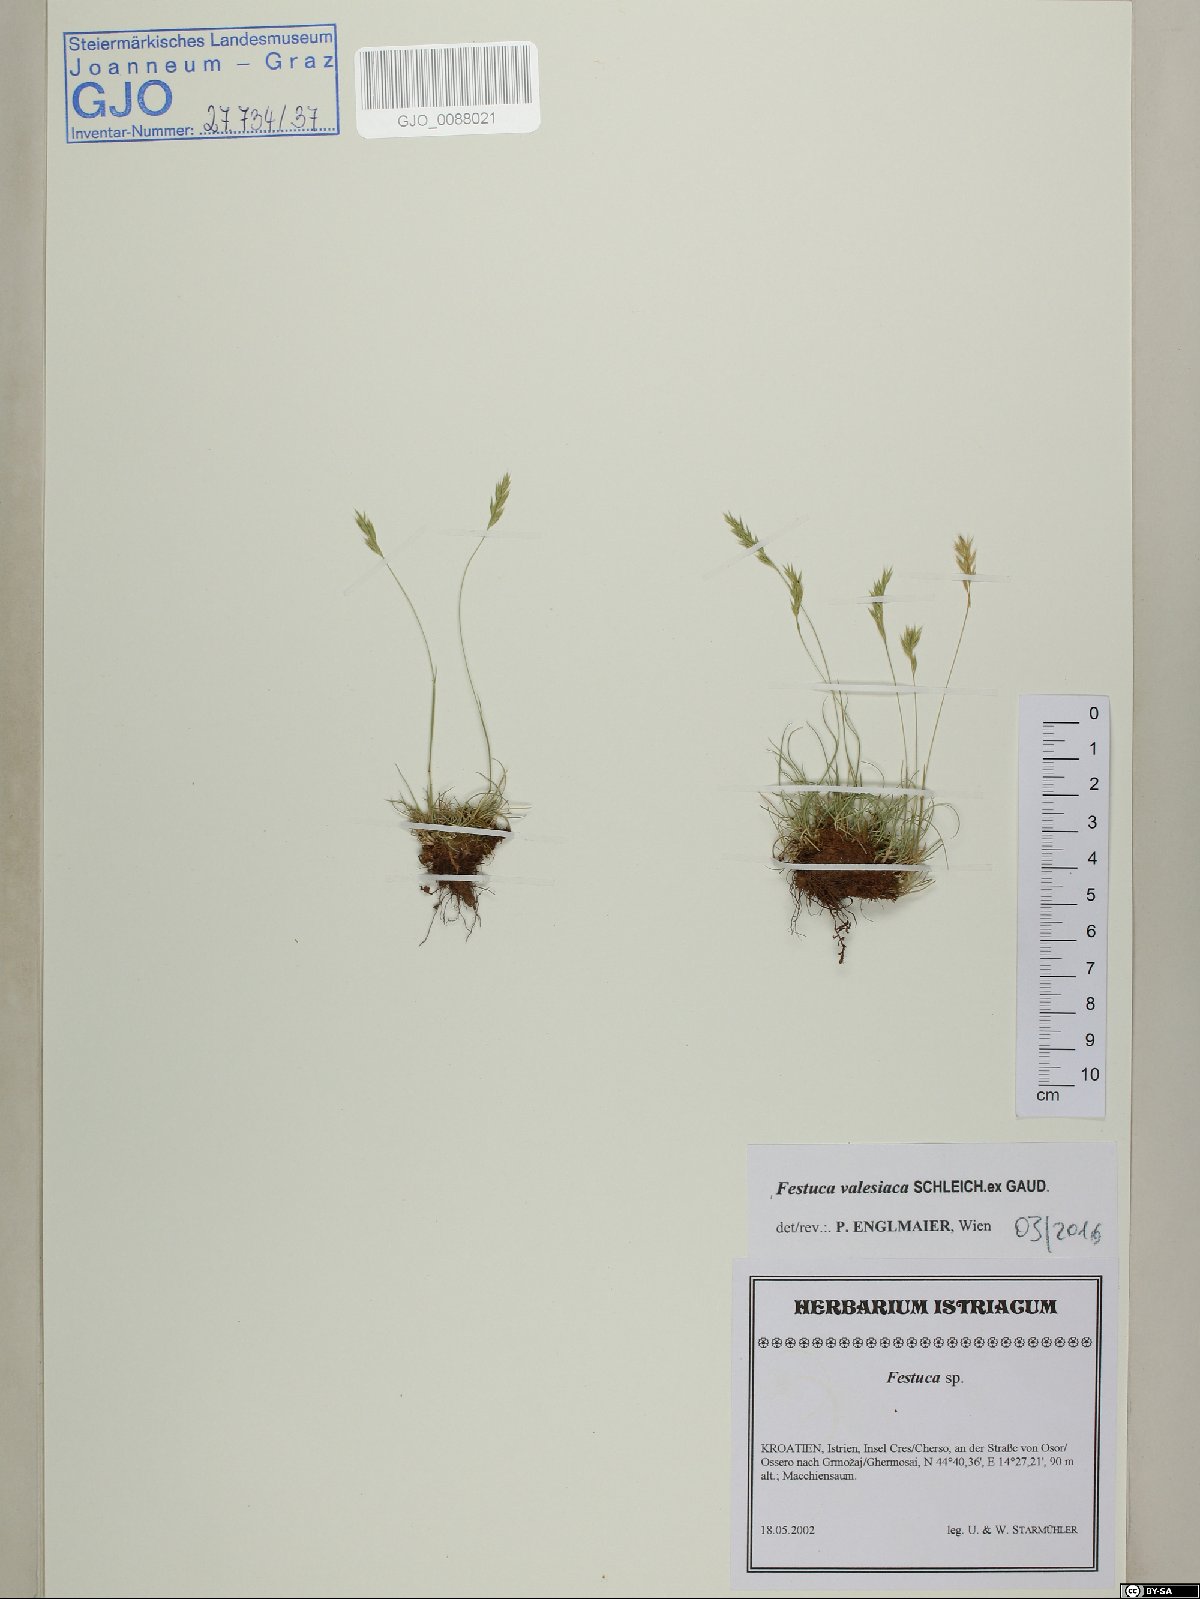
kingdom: Plantae
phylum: Tracheophyta
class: Liliopsida
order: Poales
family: Poaceae
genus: Festuca
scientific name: Festuca valesiaca
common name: Volga fescue
